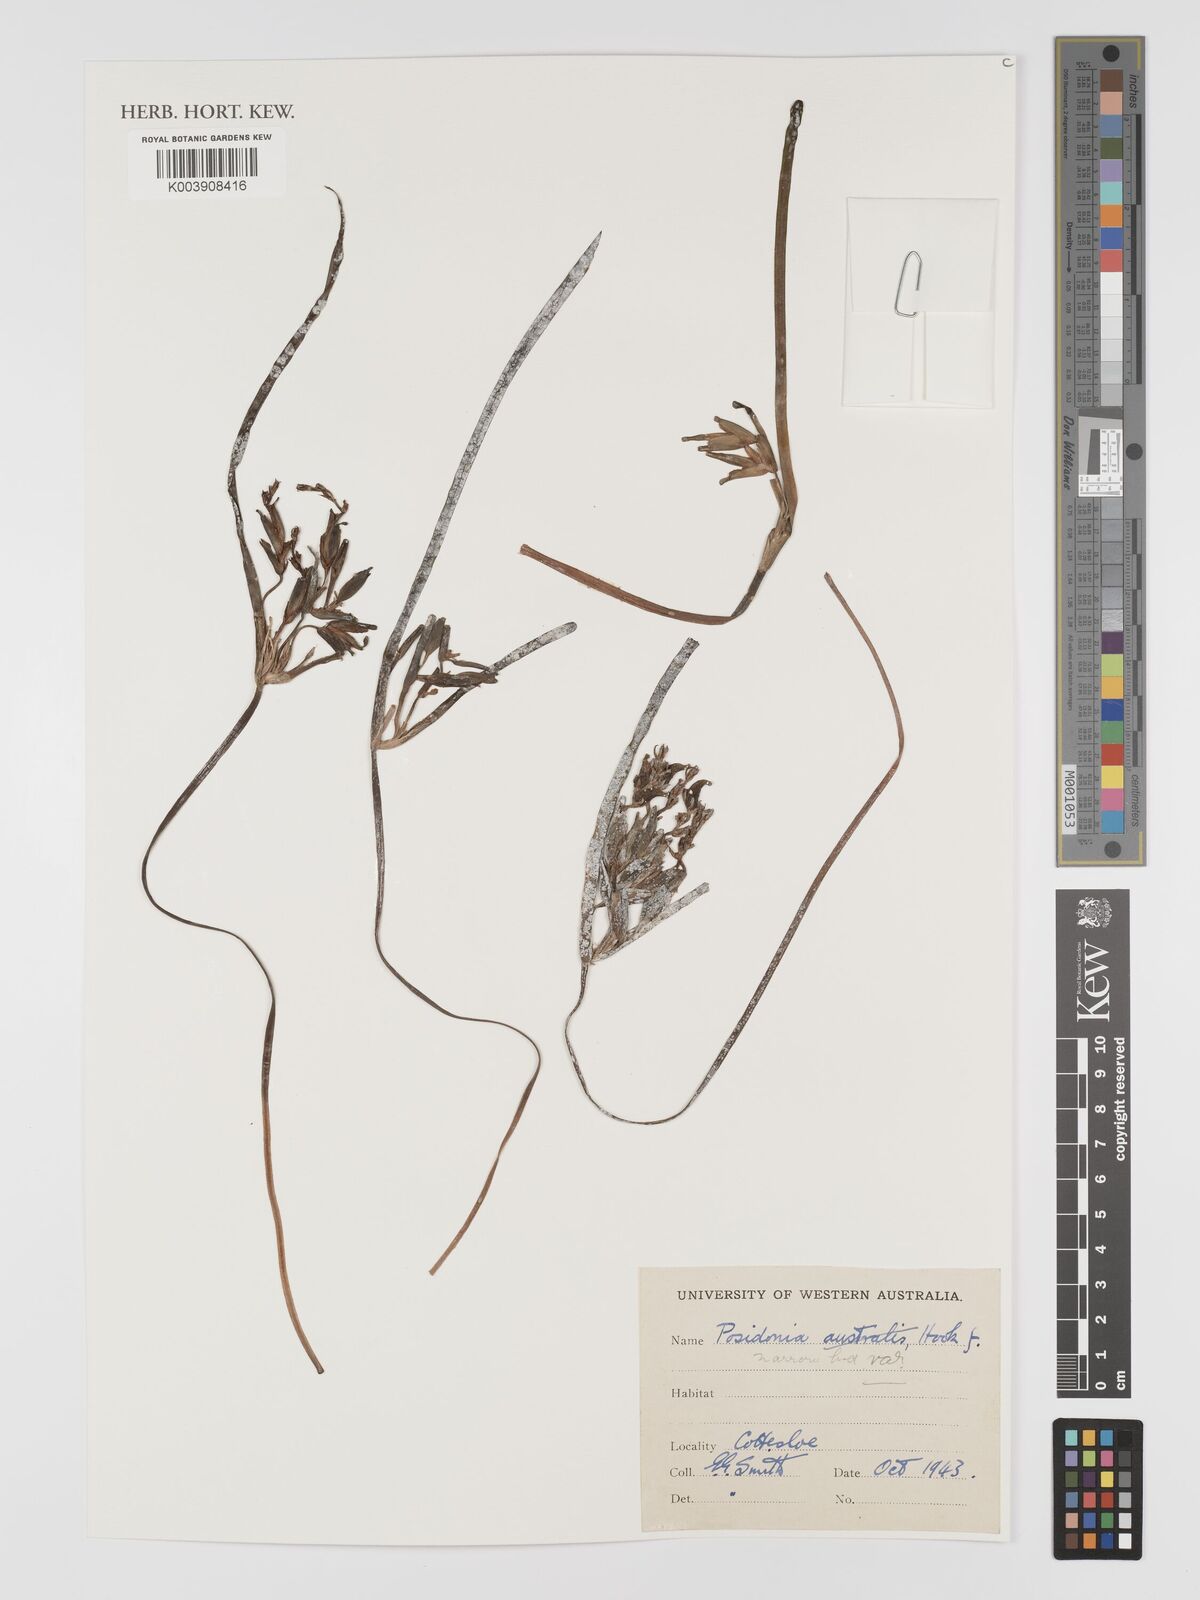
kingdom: Plantae
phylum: Tracheophyta
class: Liliopsida
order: Alismatales
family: Posidoniaceae
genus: Posidonia
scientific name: Posidonia australis
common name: Species code: pa
